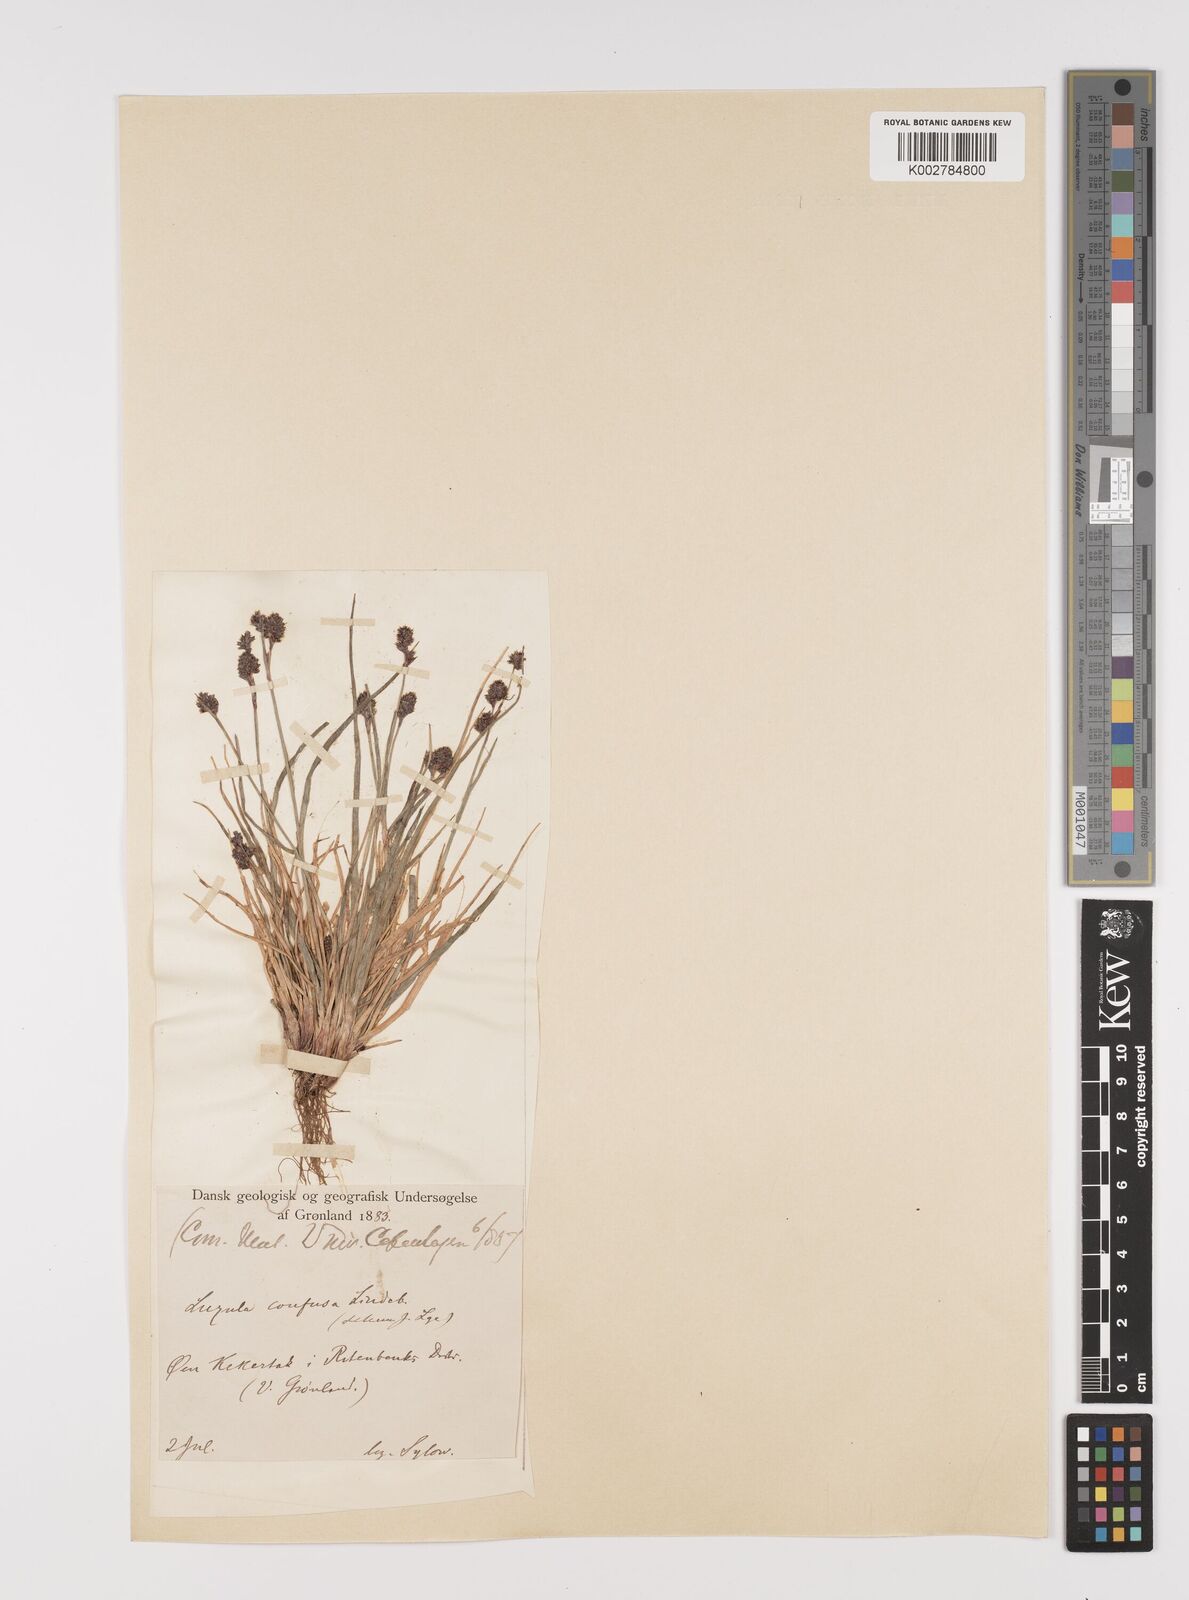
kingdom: Plantae
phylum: Tracheophyta
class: Liliopsida
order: Poales
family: Juncaceae
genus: Luzula
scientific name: Luzula confusa
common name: Northern wood rush
